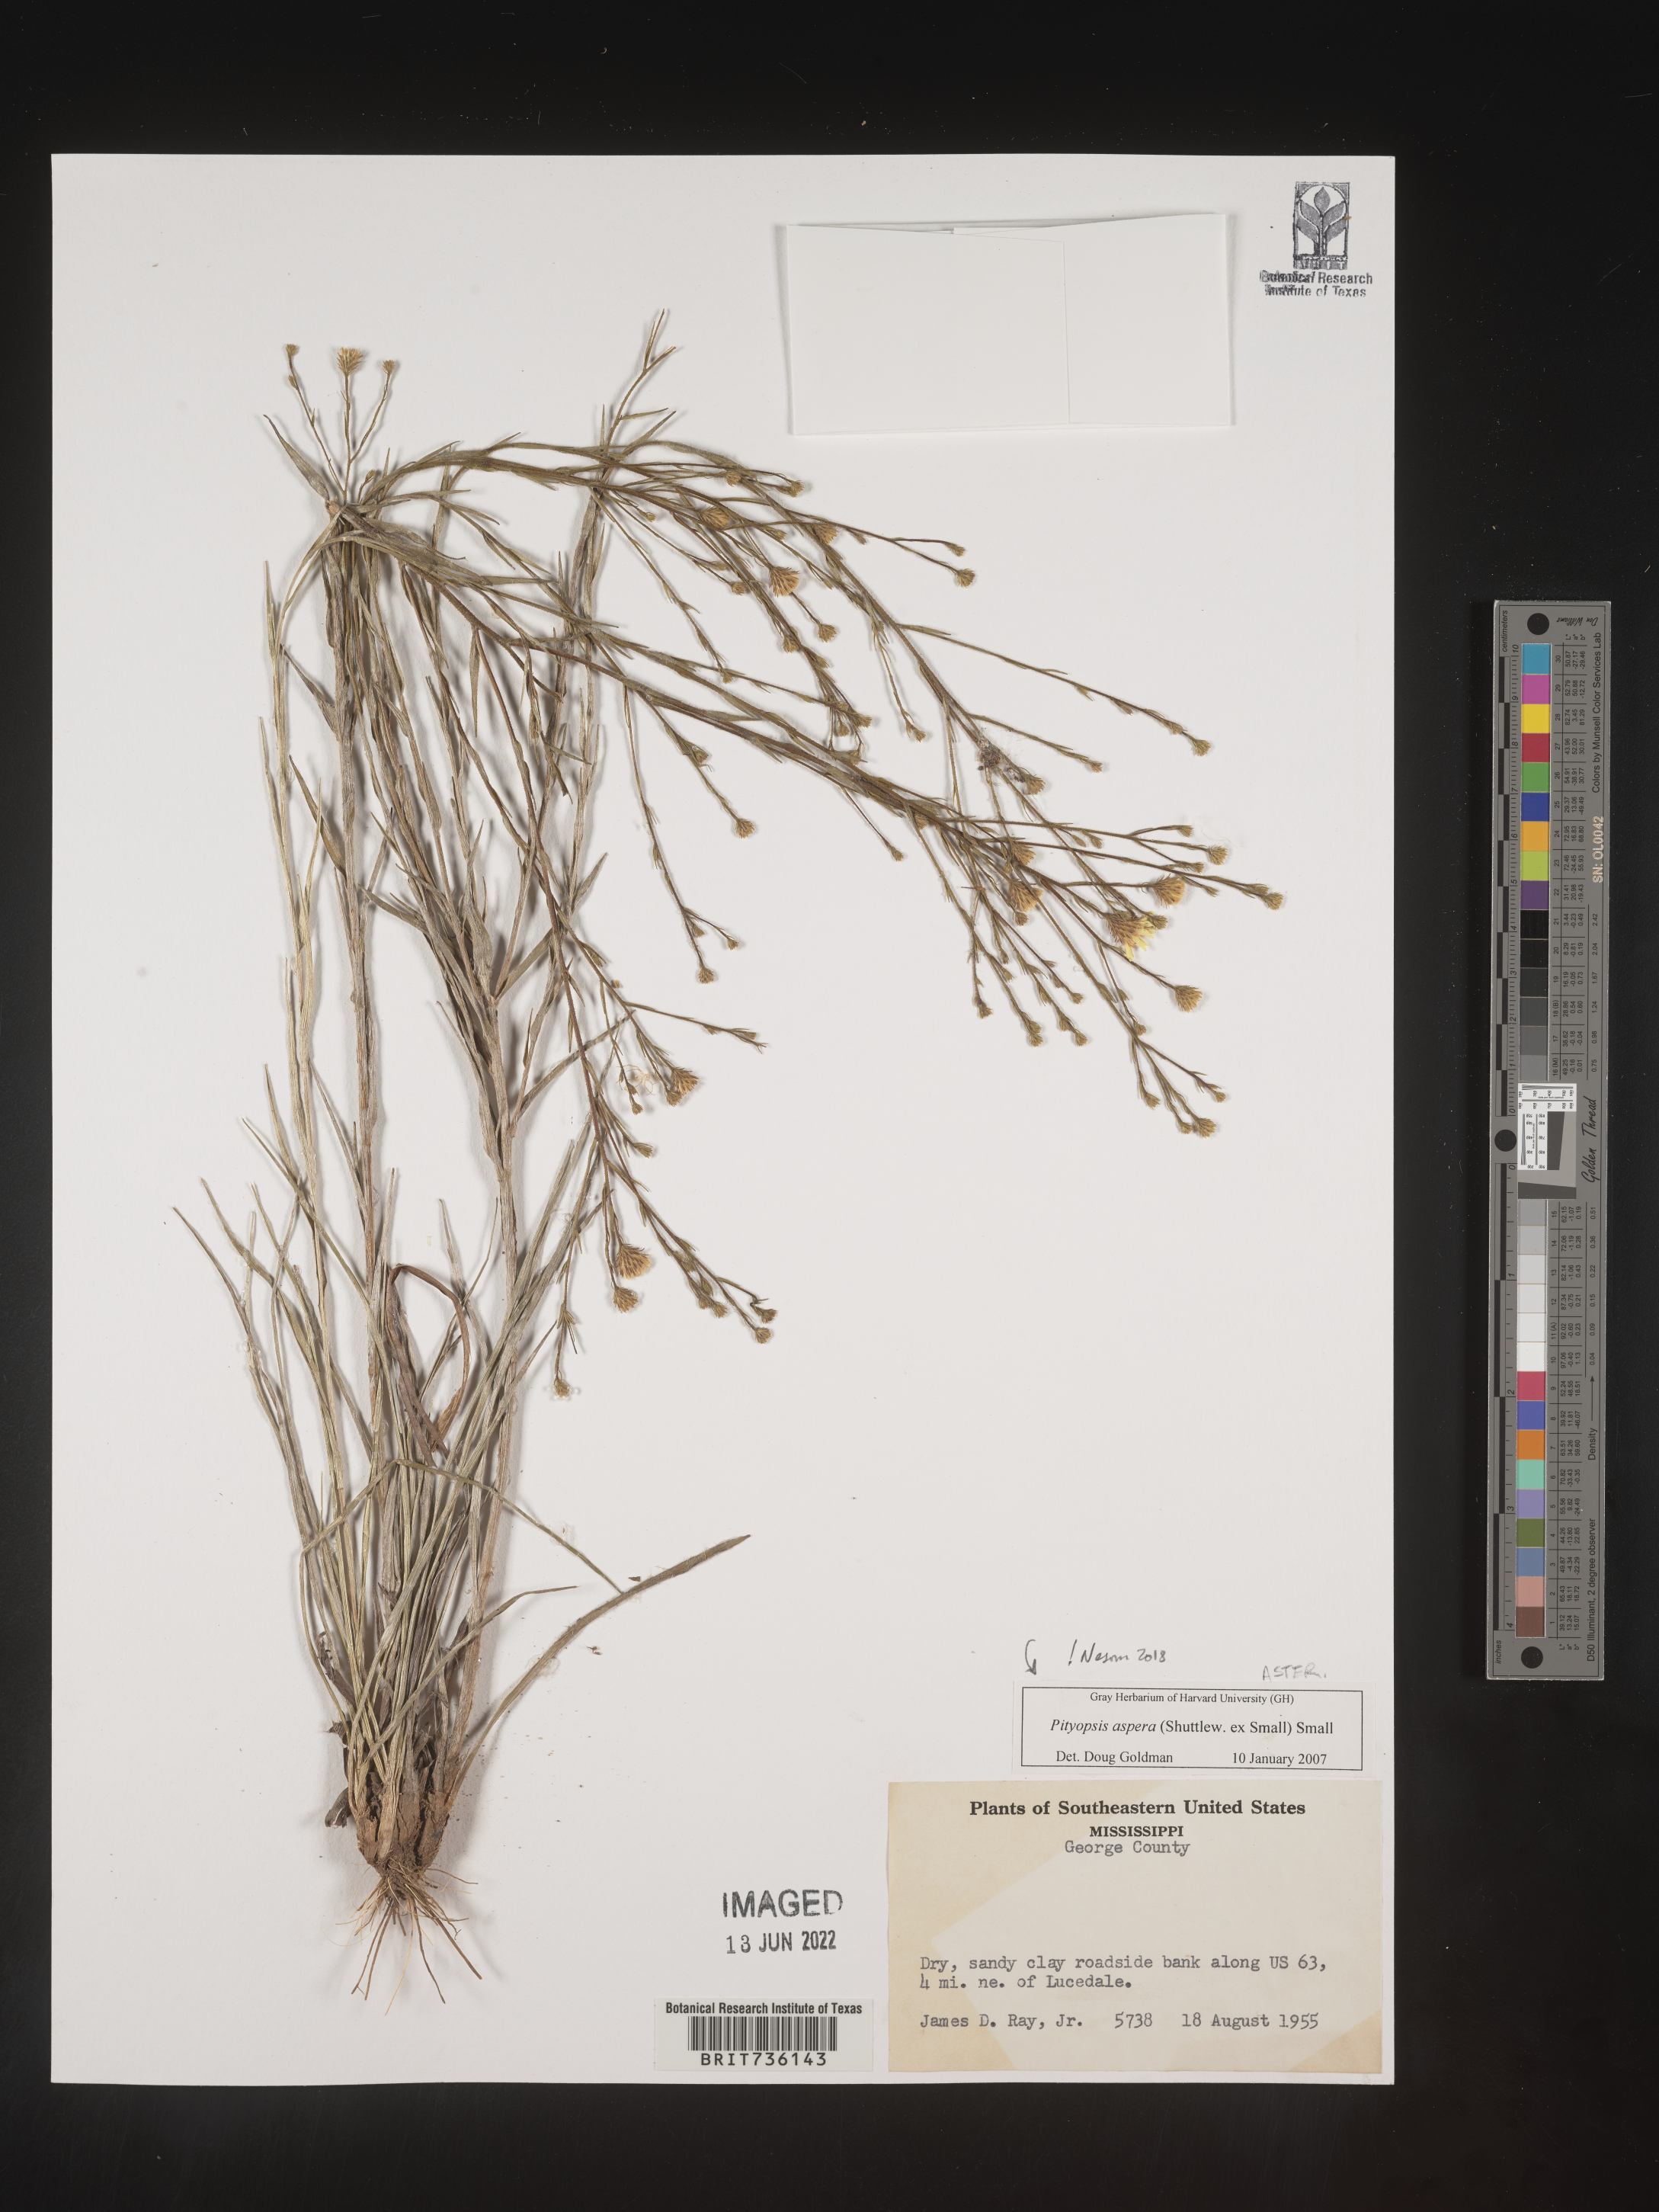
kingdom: Plantae
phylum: Tracheophyta
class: Magnoliopsida
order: Asterales
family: Asteraceae
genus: Pityopsis
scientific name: Pityopsis aspera
